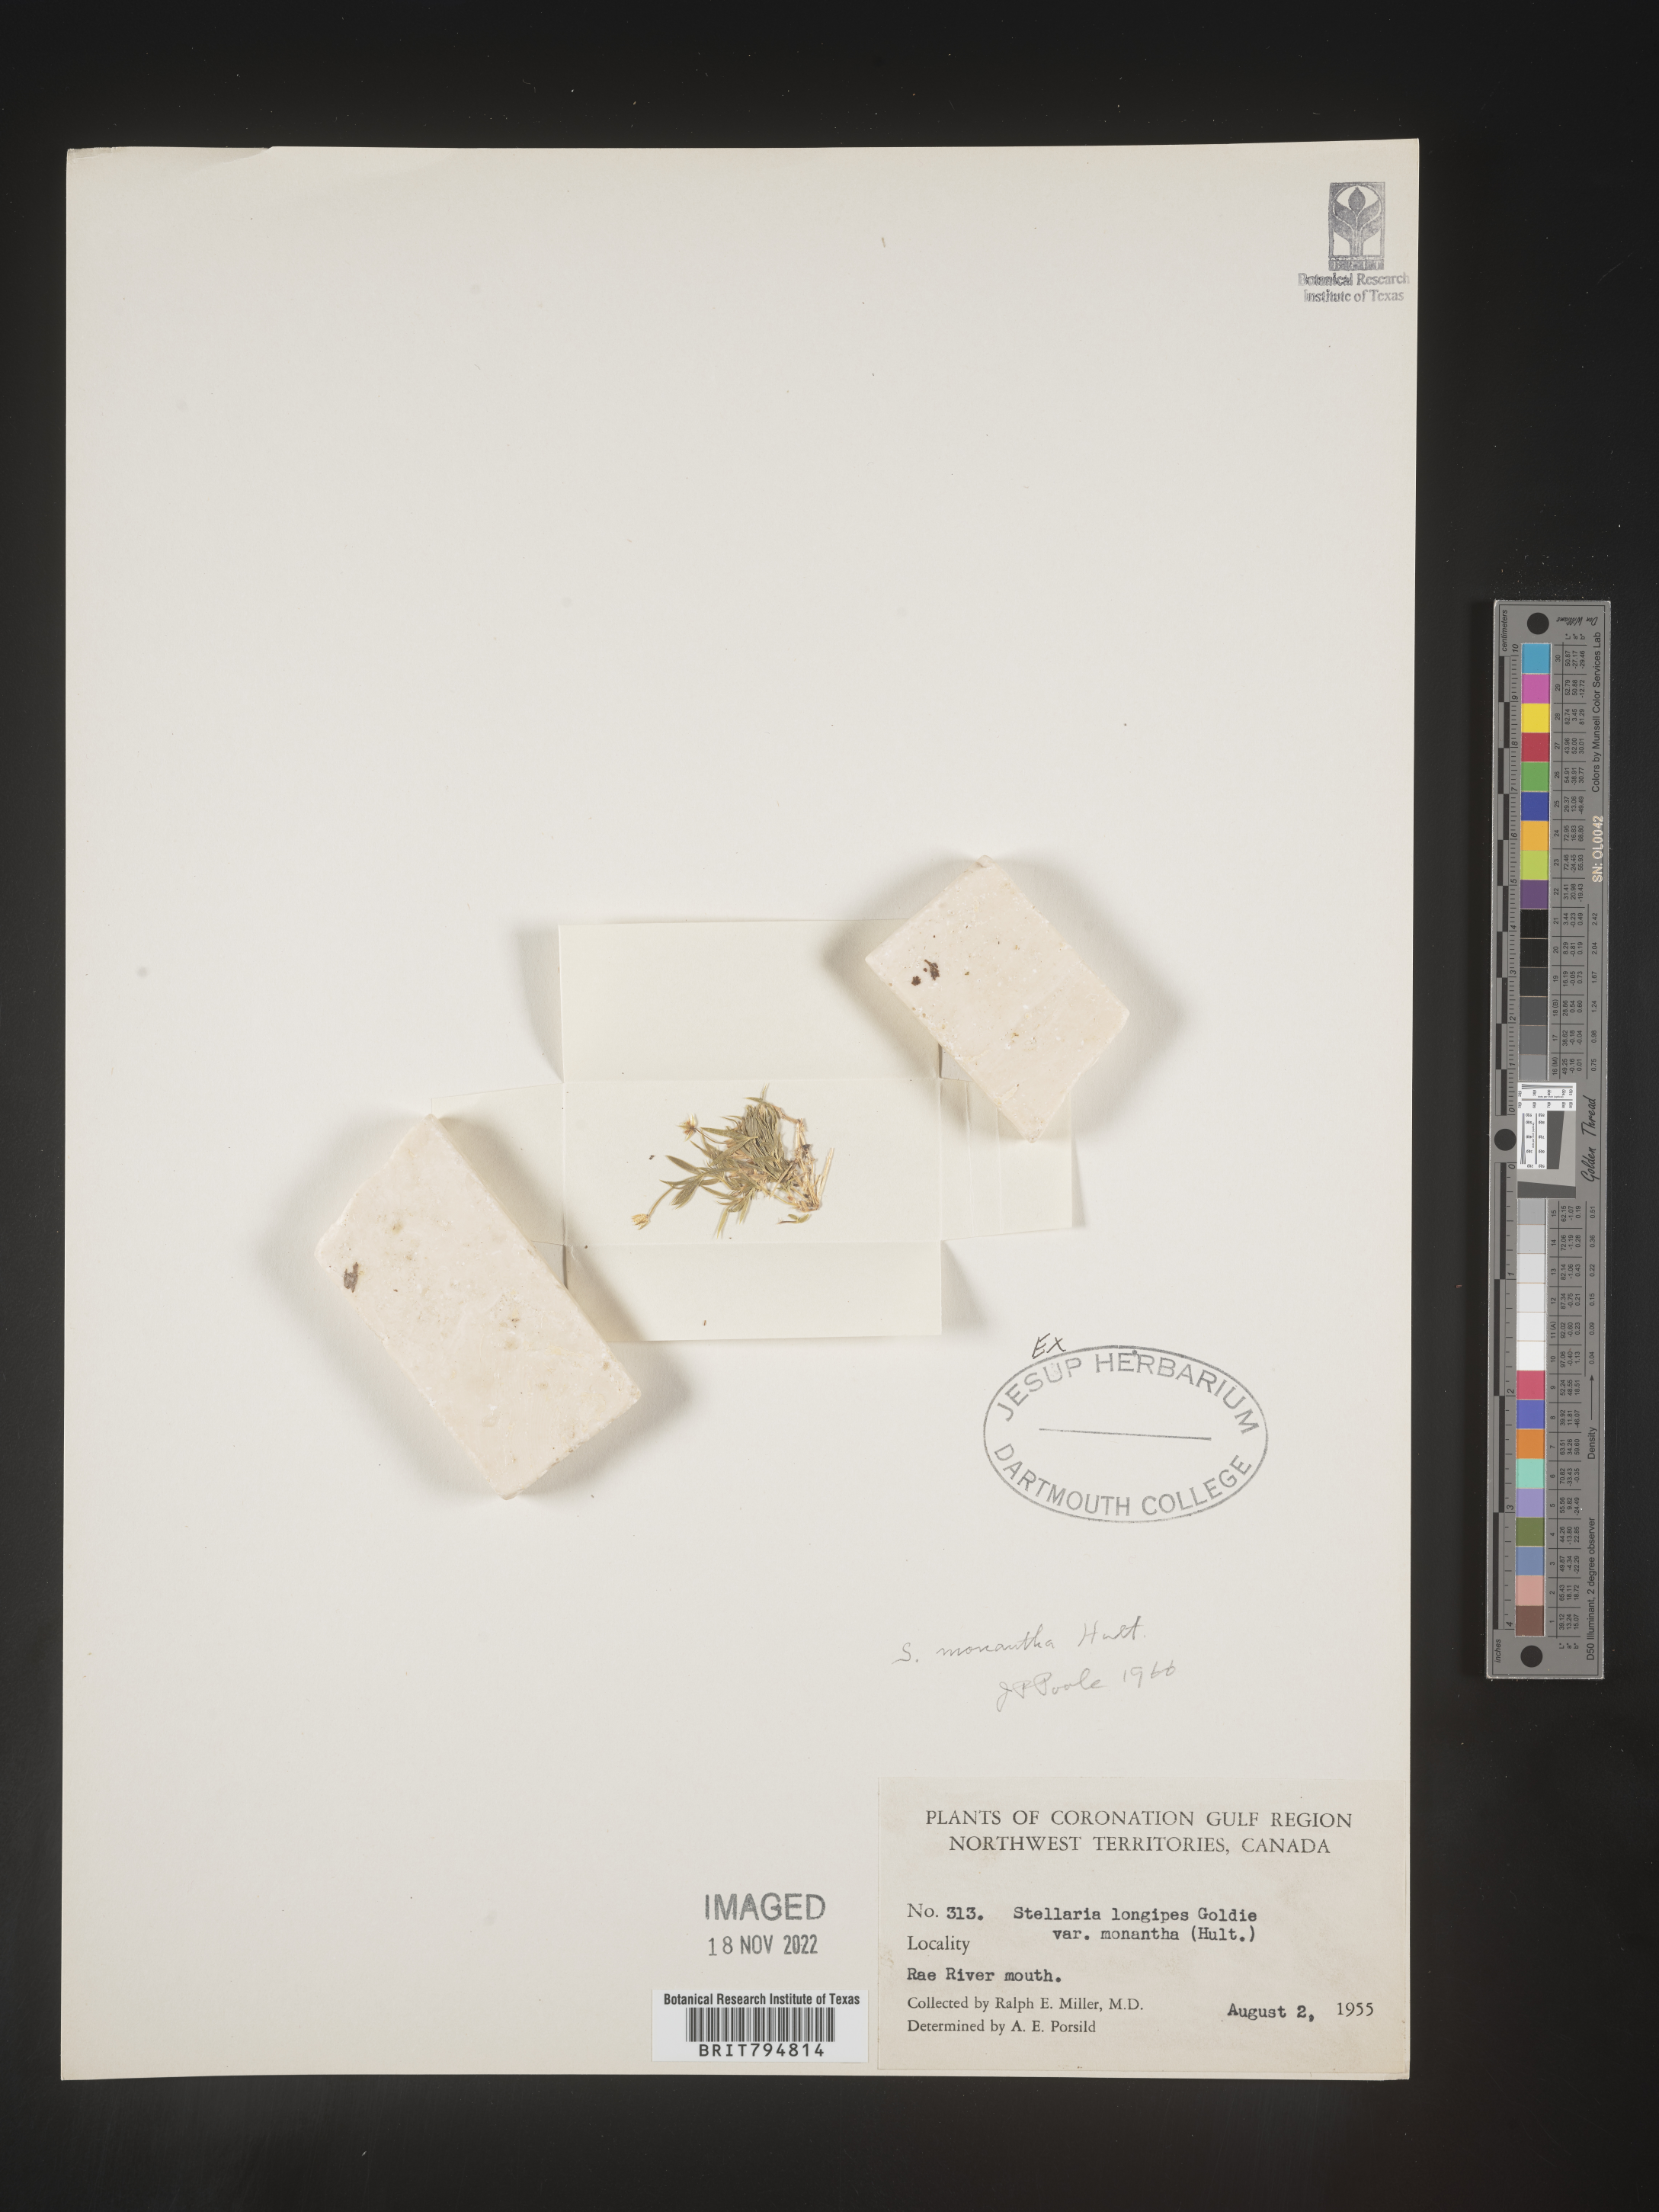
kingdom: Plantae
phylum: Tracheophyta
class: Magnoliopsida
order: Caryophyllales
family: Caryophyllaceae
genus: Stellaria
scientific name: Stellaria longipes
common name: Goldie's starwort
